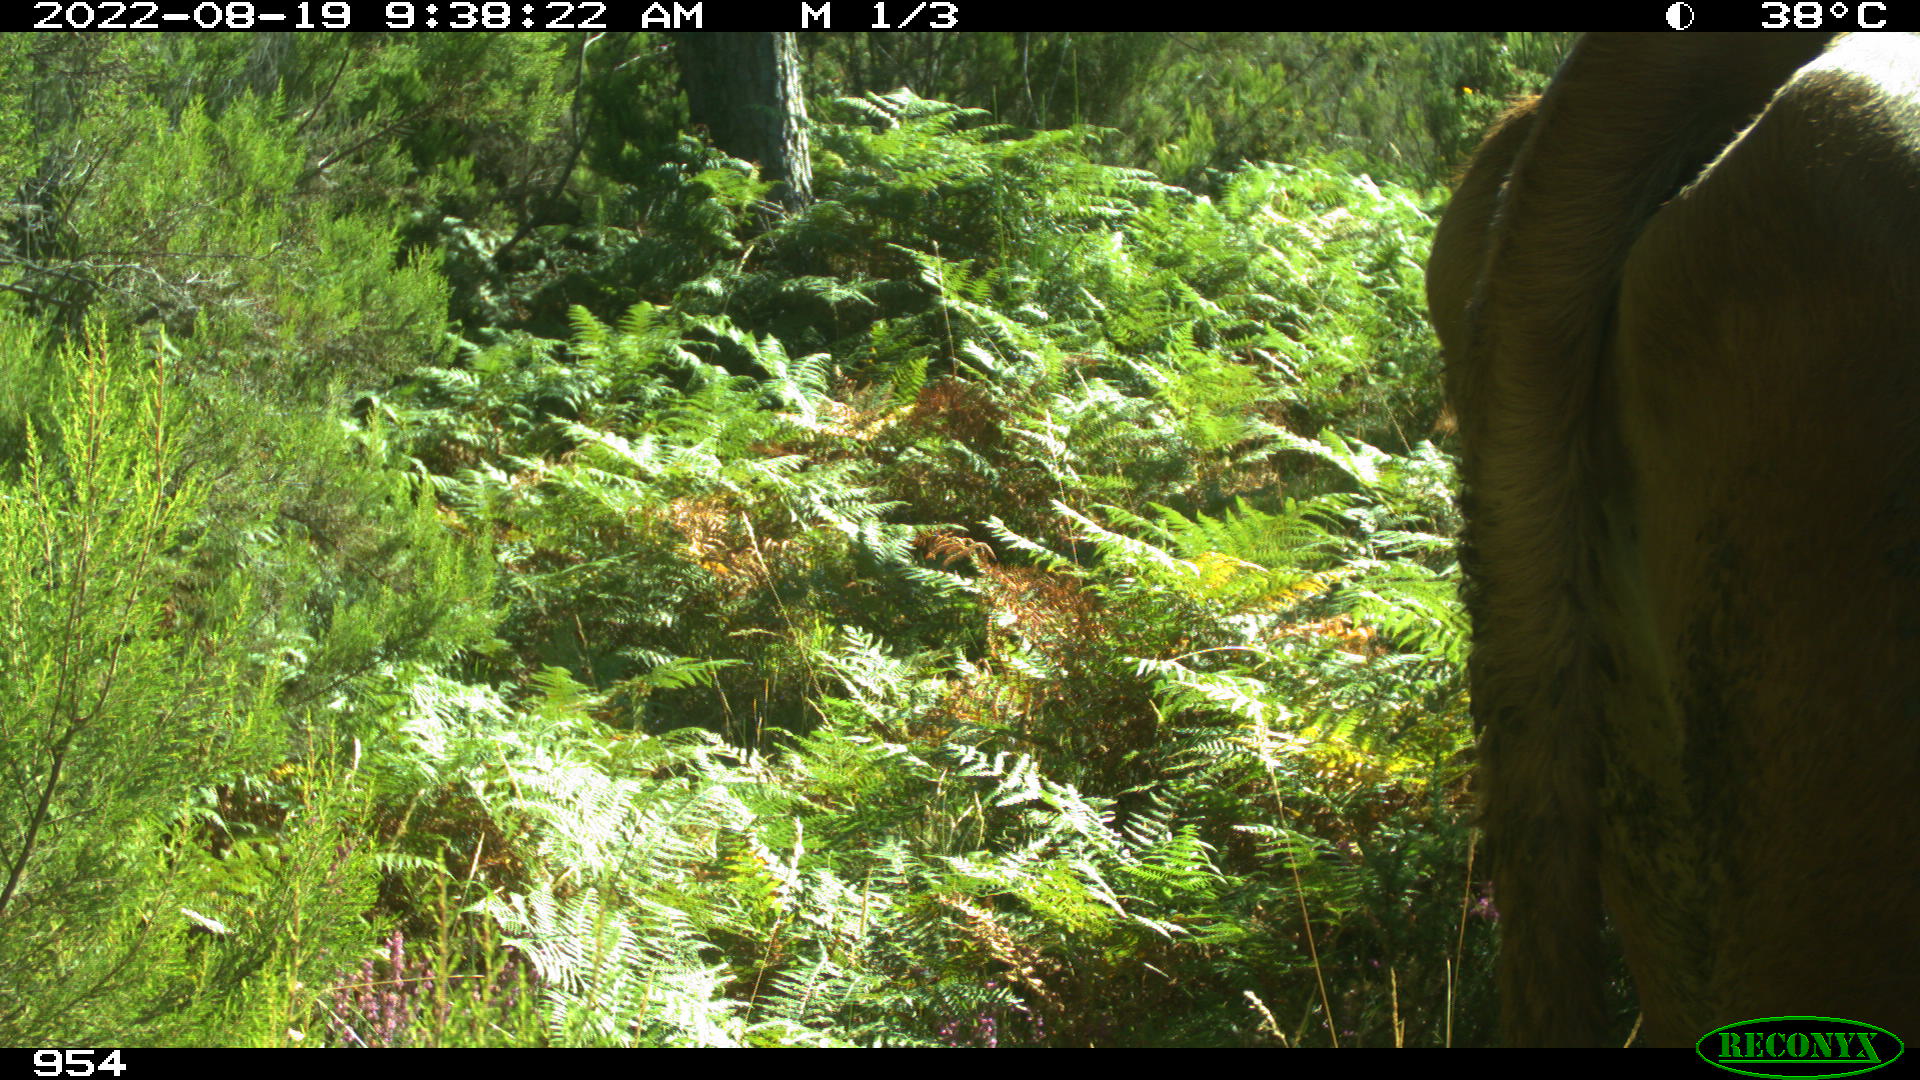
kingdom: Animalia
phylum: Chordata
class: Mammalia
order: Artiodactyla
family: Bovidae
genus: Bos
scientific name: Bos taurus
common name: Domesticated cattle
